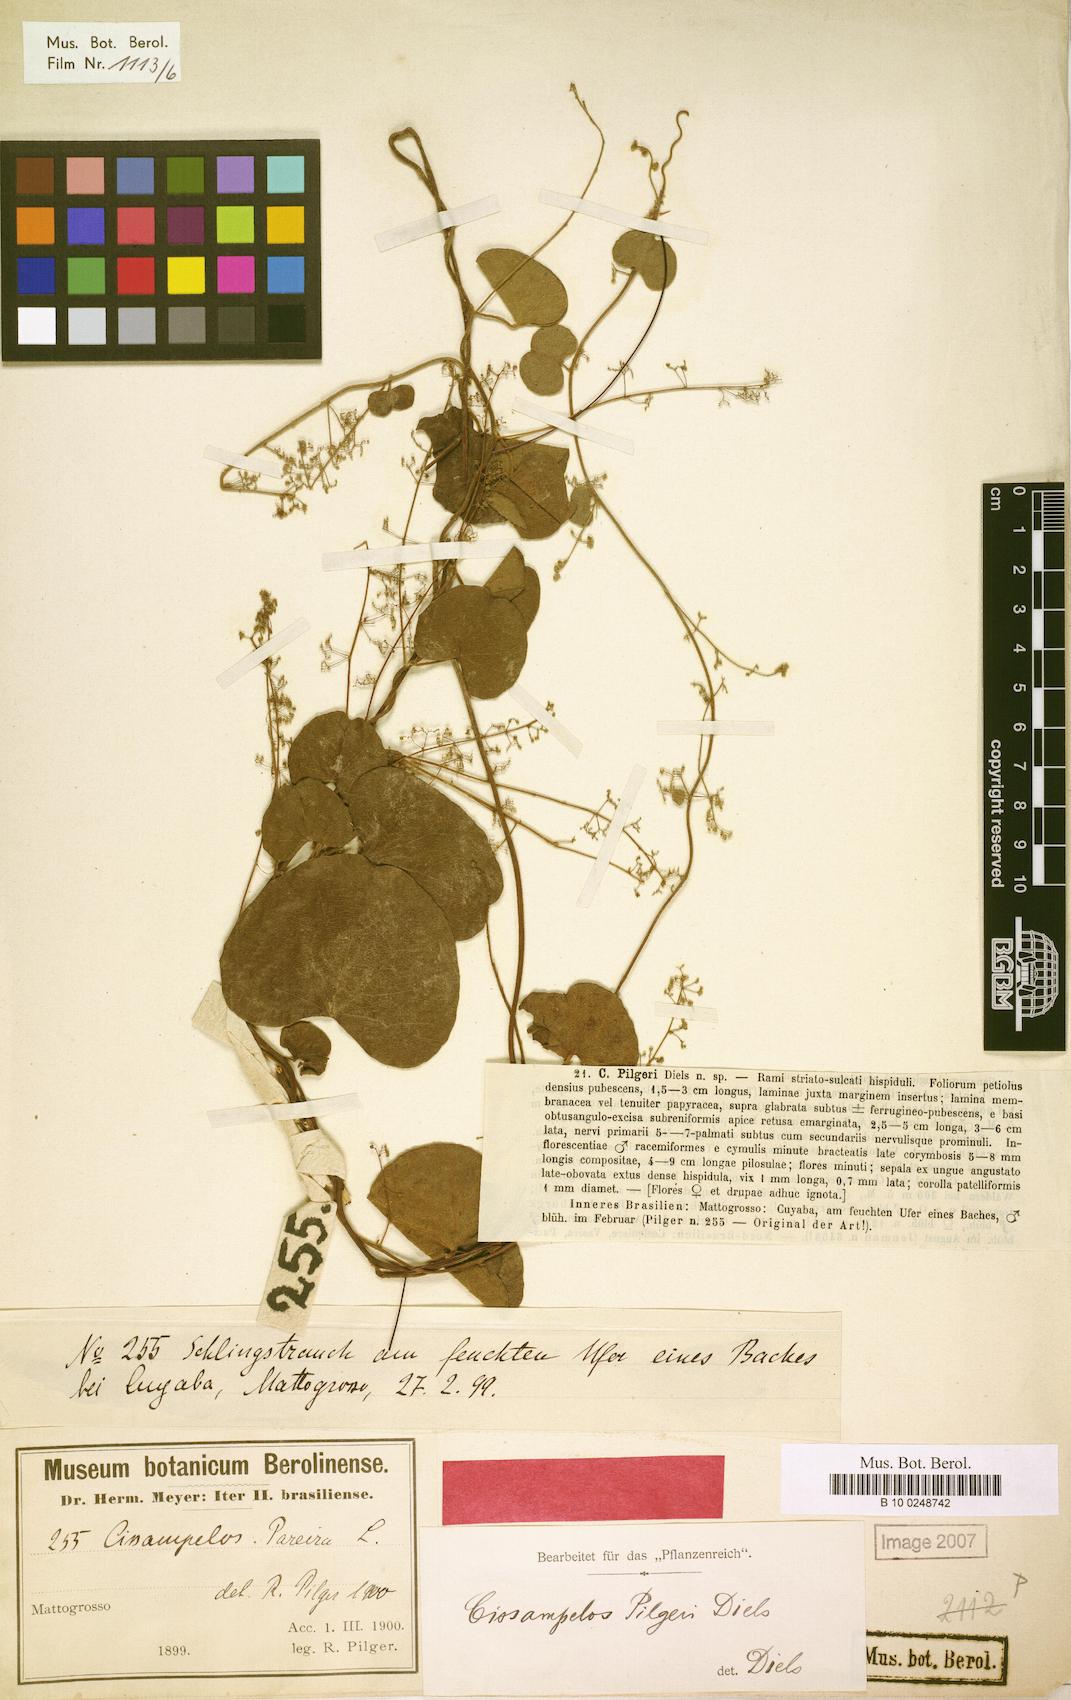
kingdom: Plantae
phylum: Tracheophyta
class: Magnoliopsida
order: Ranunculales
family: Menispermaceae
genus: Cissampelos
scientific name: Cissampelos pareira
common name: Velvetleaf
